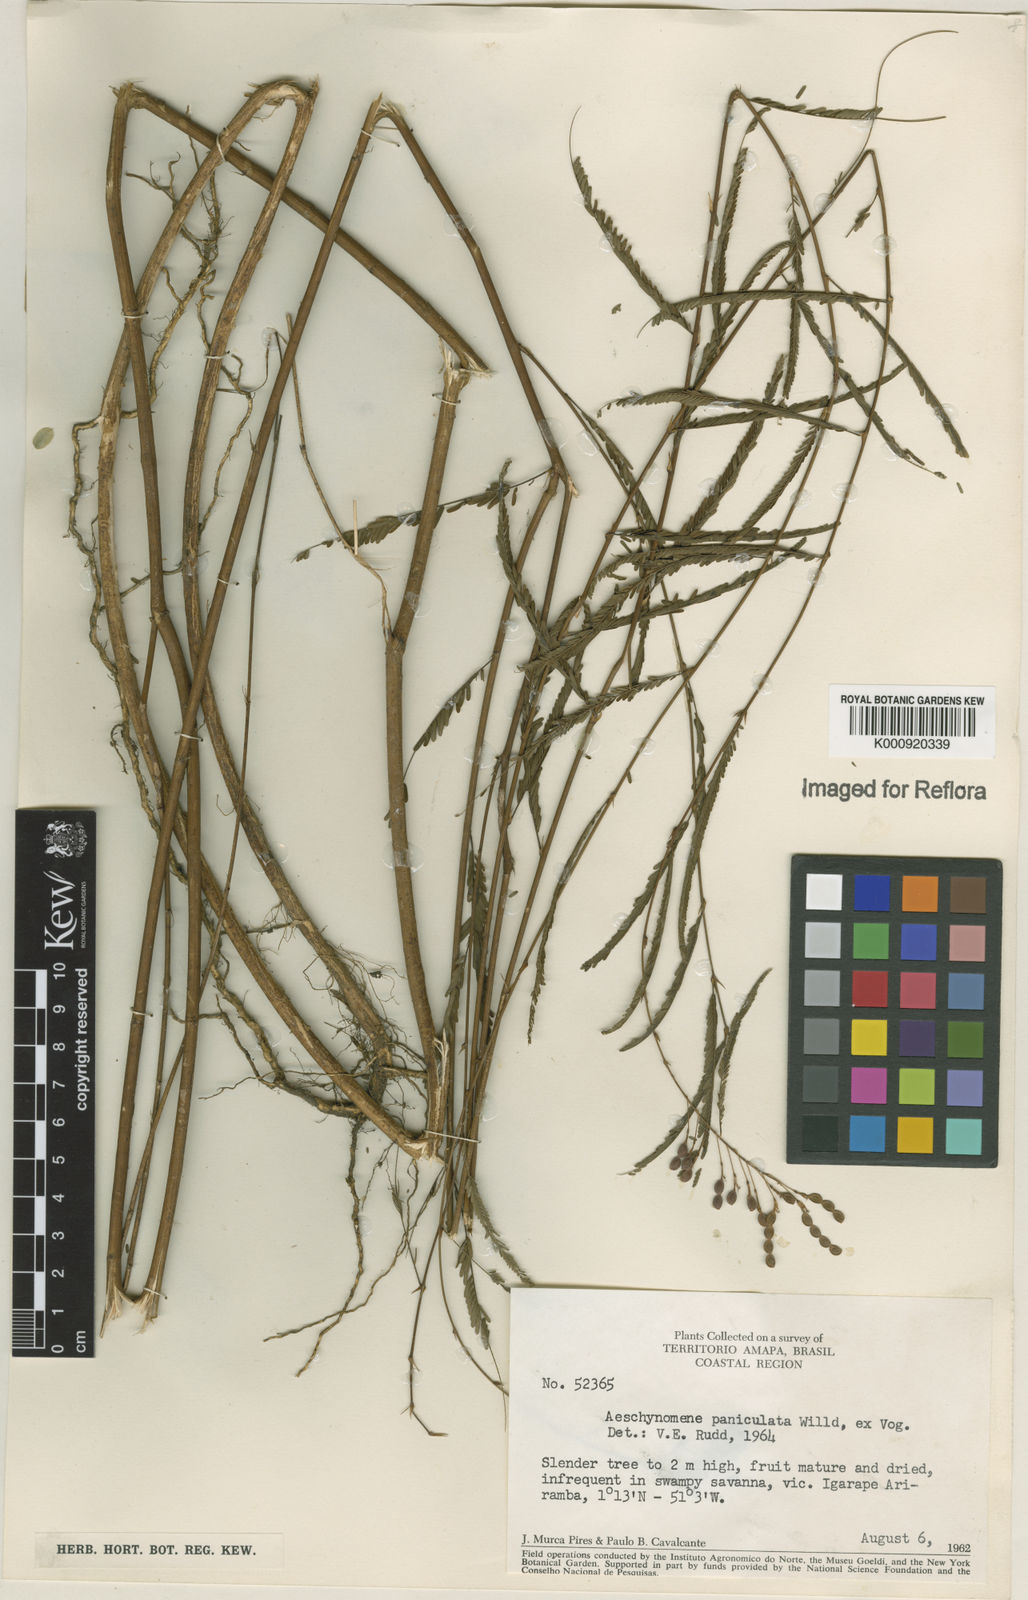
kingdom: Plantae
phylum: Tracheophyta
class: Magnoliopsida
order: Fabales
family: Fabaceae
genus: Ctenodon
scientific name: Ctenodon paniculatus
